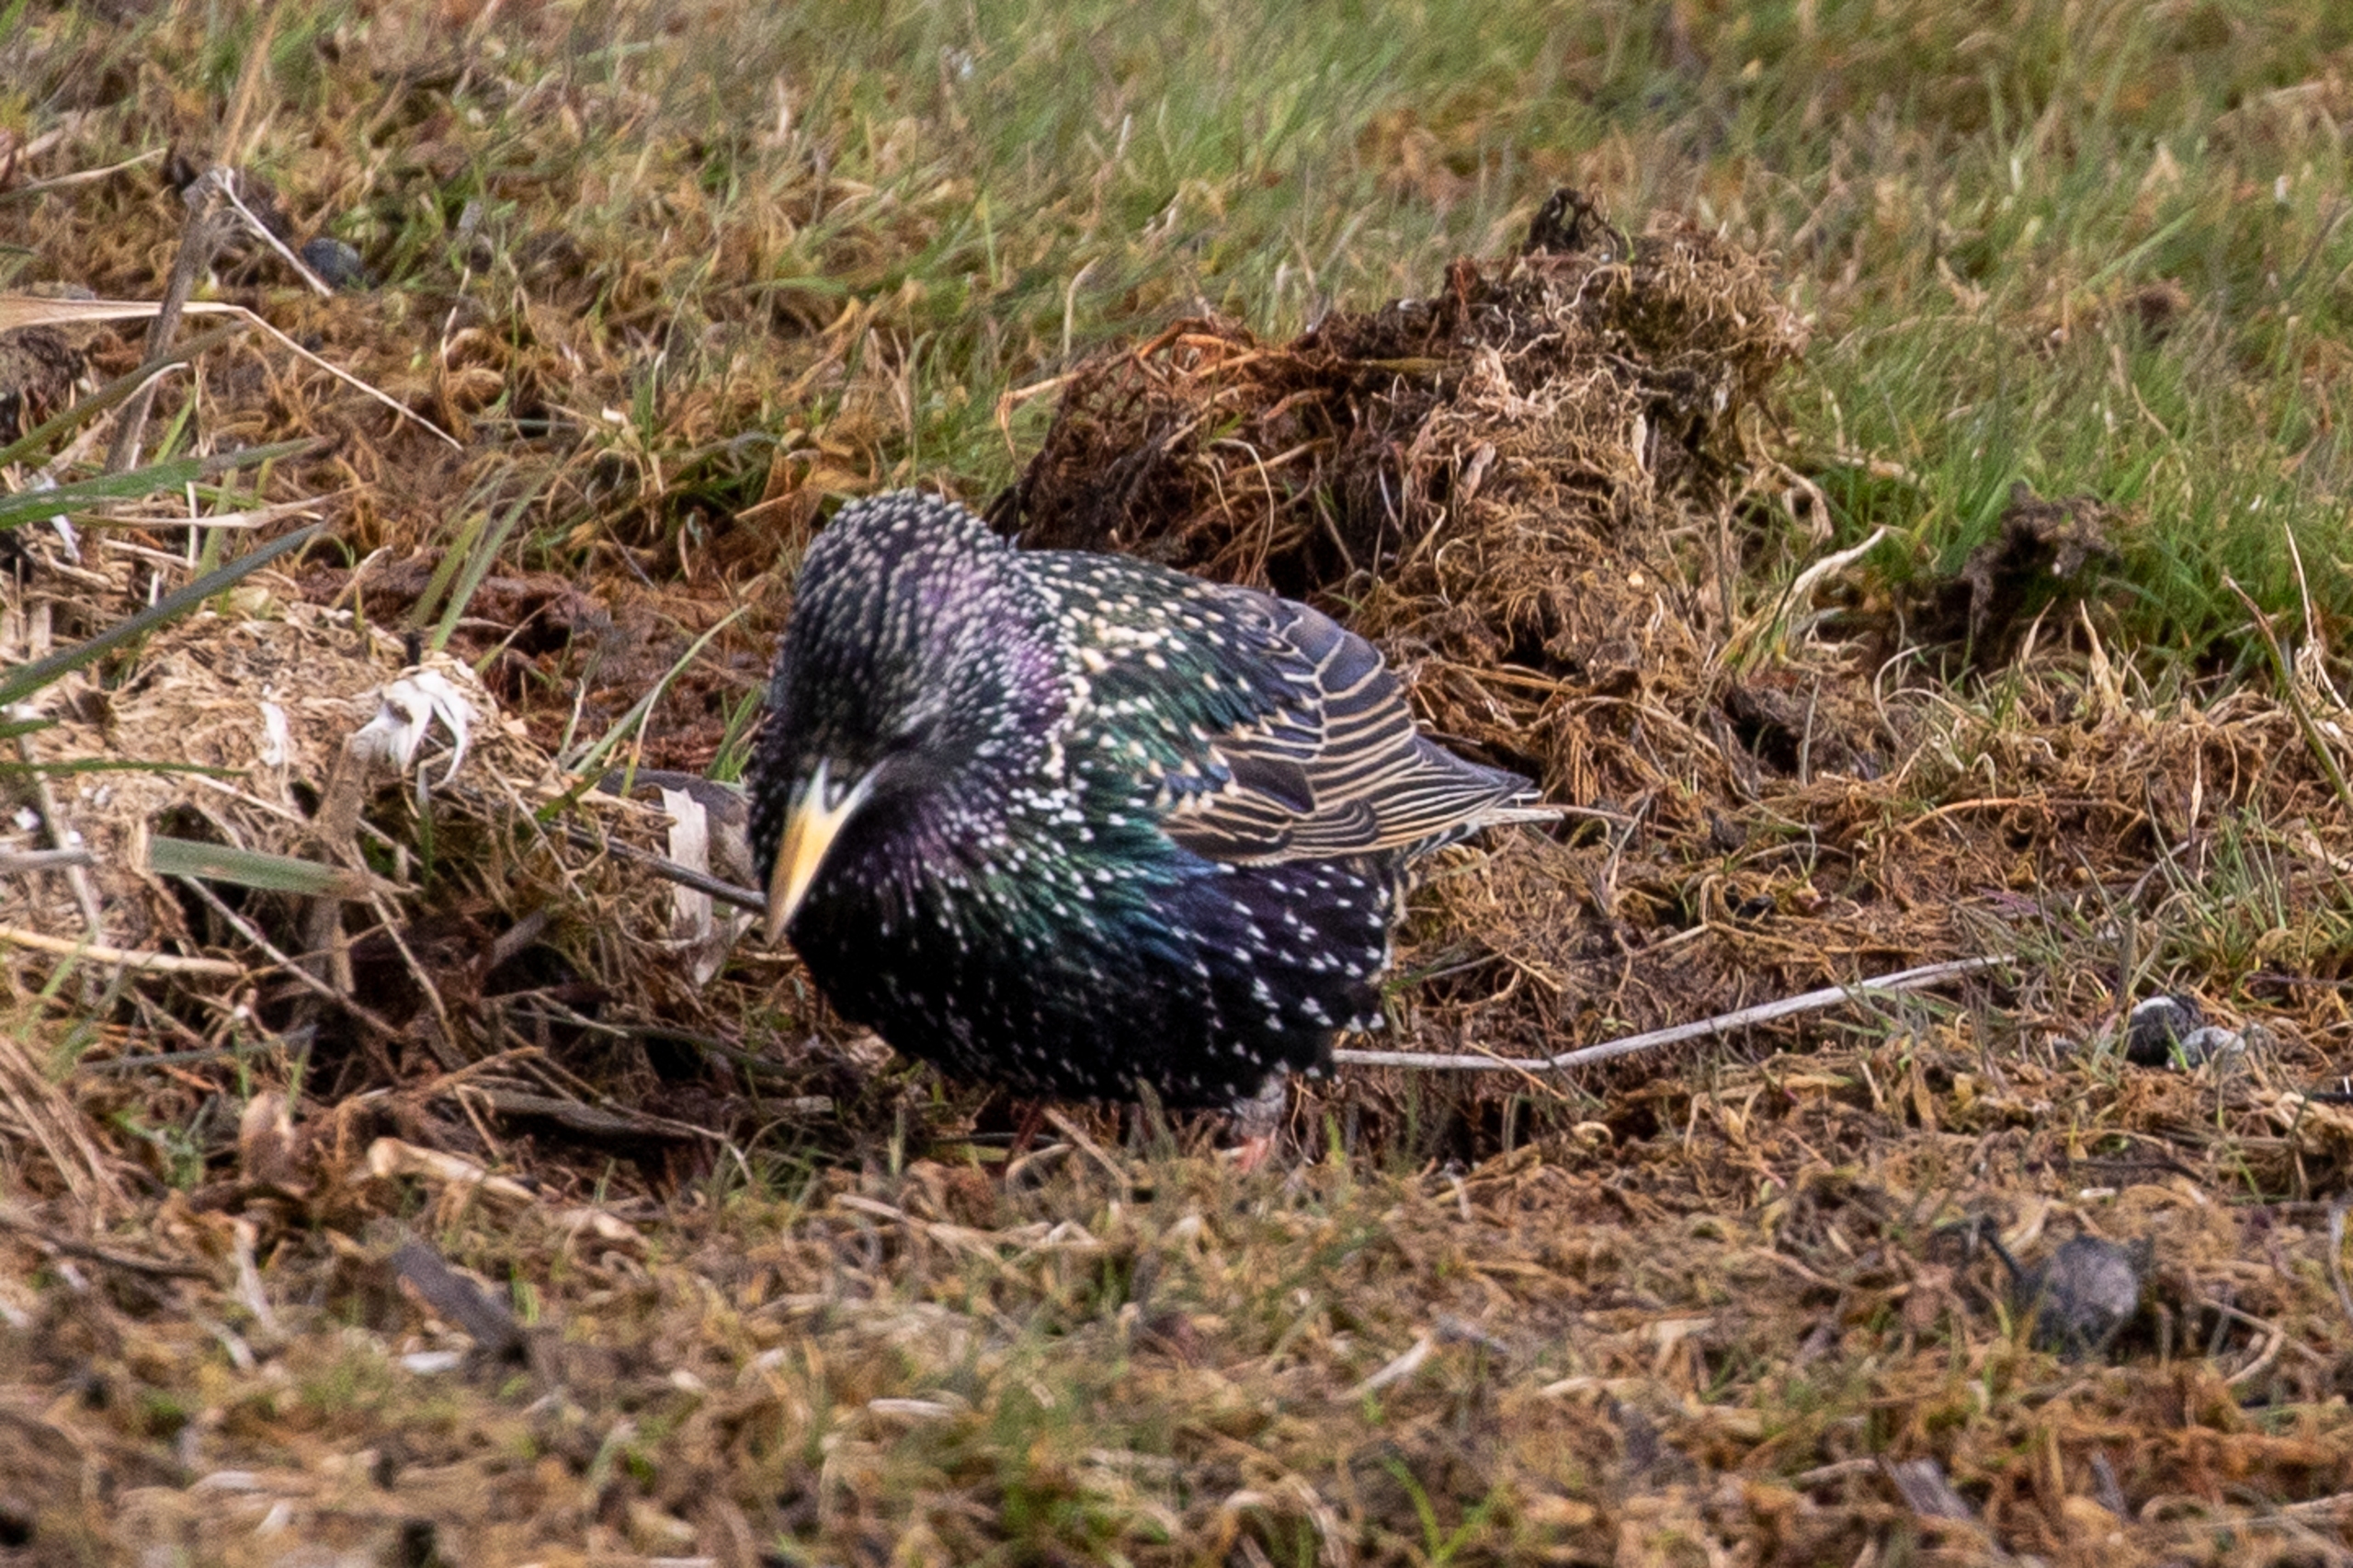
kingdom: Animalia
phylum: Chordata
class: Aves
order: Passeriformes
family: Sturnidae
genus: Sturnus
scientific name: Sturnus vulgaris
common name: Stær
